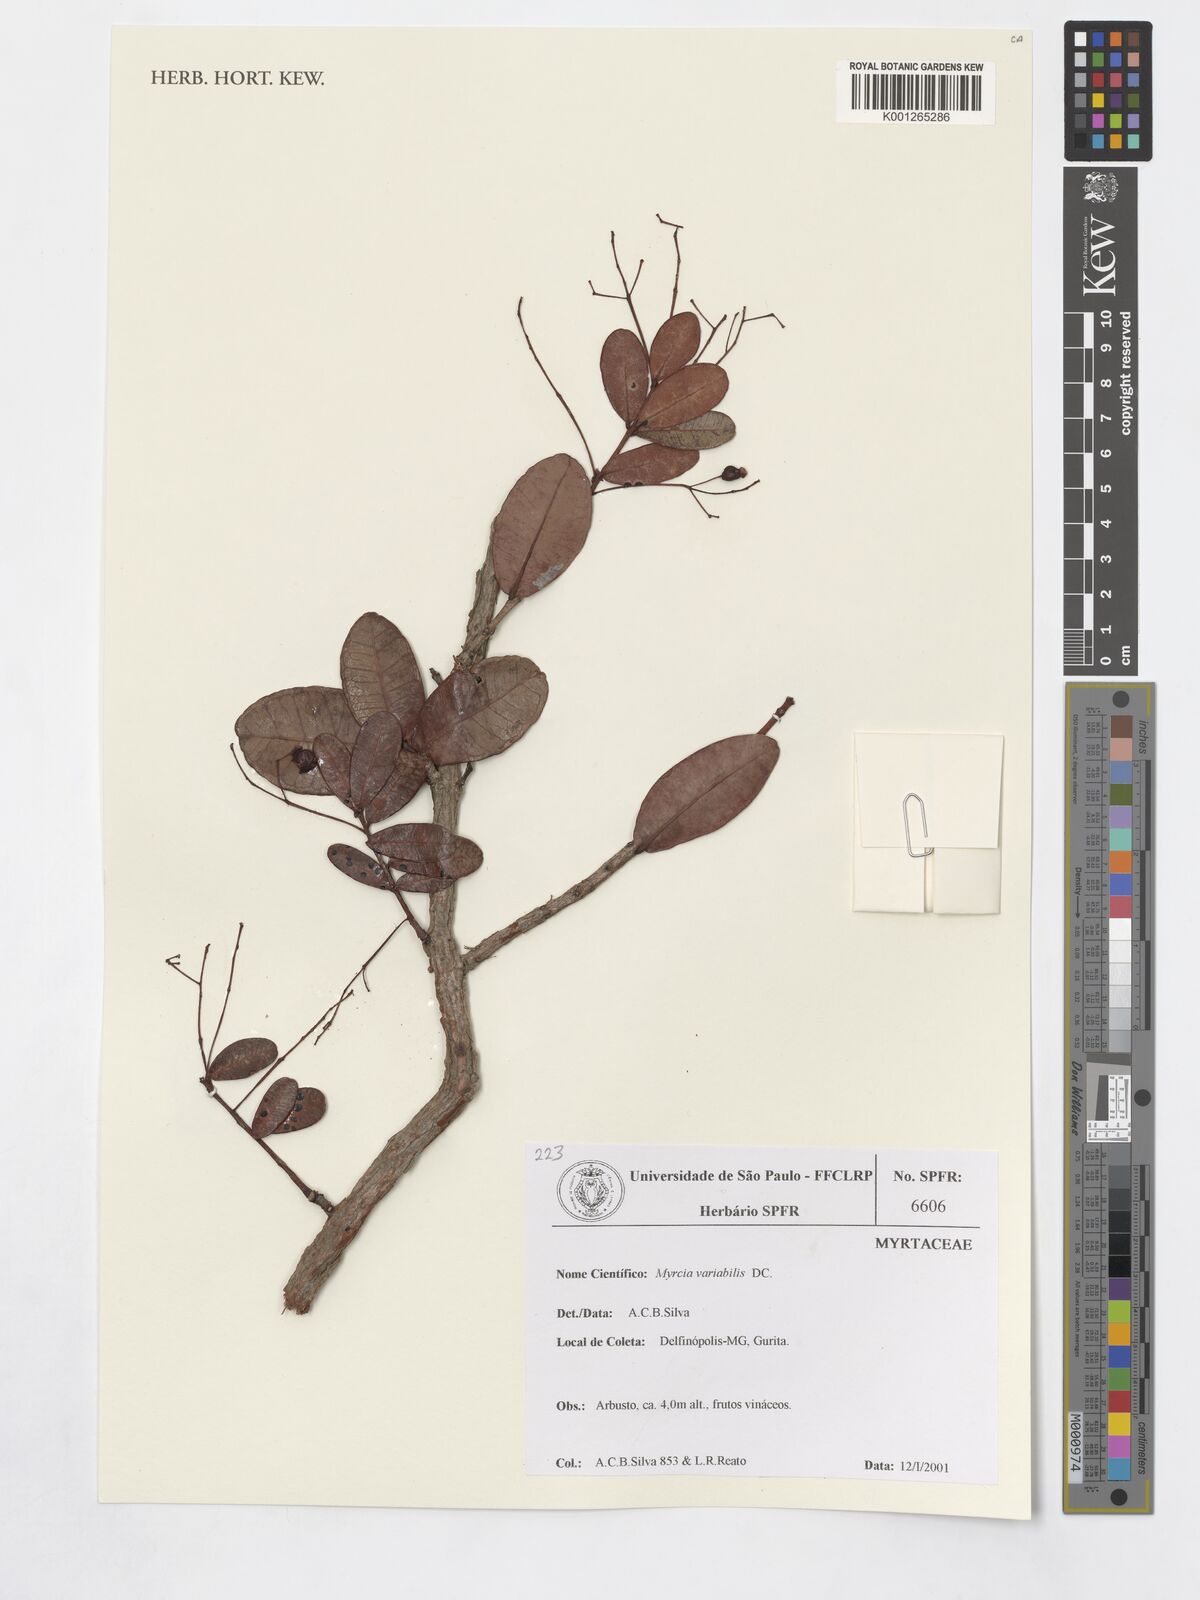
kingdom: Plantae
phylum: Tracheophyta
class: Magnoliopsida
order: Myrtales
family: Myrtaceae
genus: Myrcia
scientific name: Myrcia variabilis
